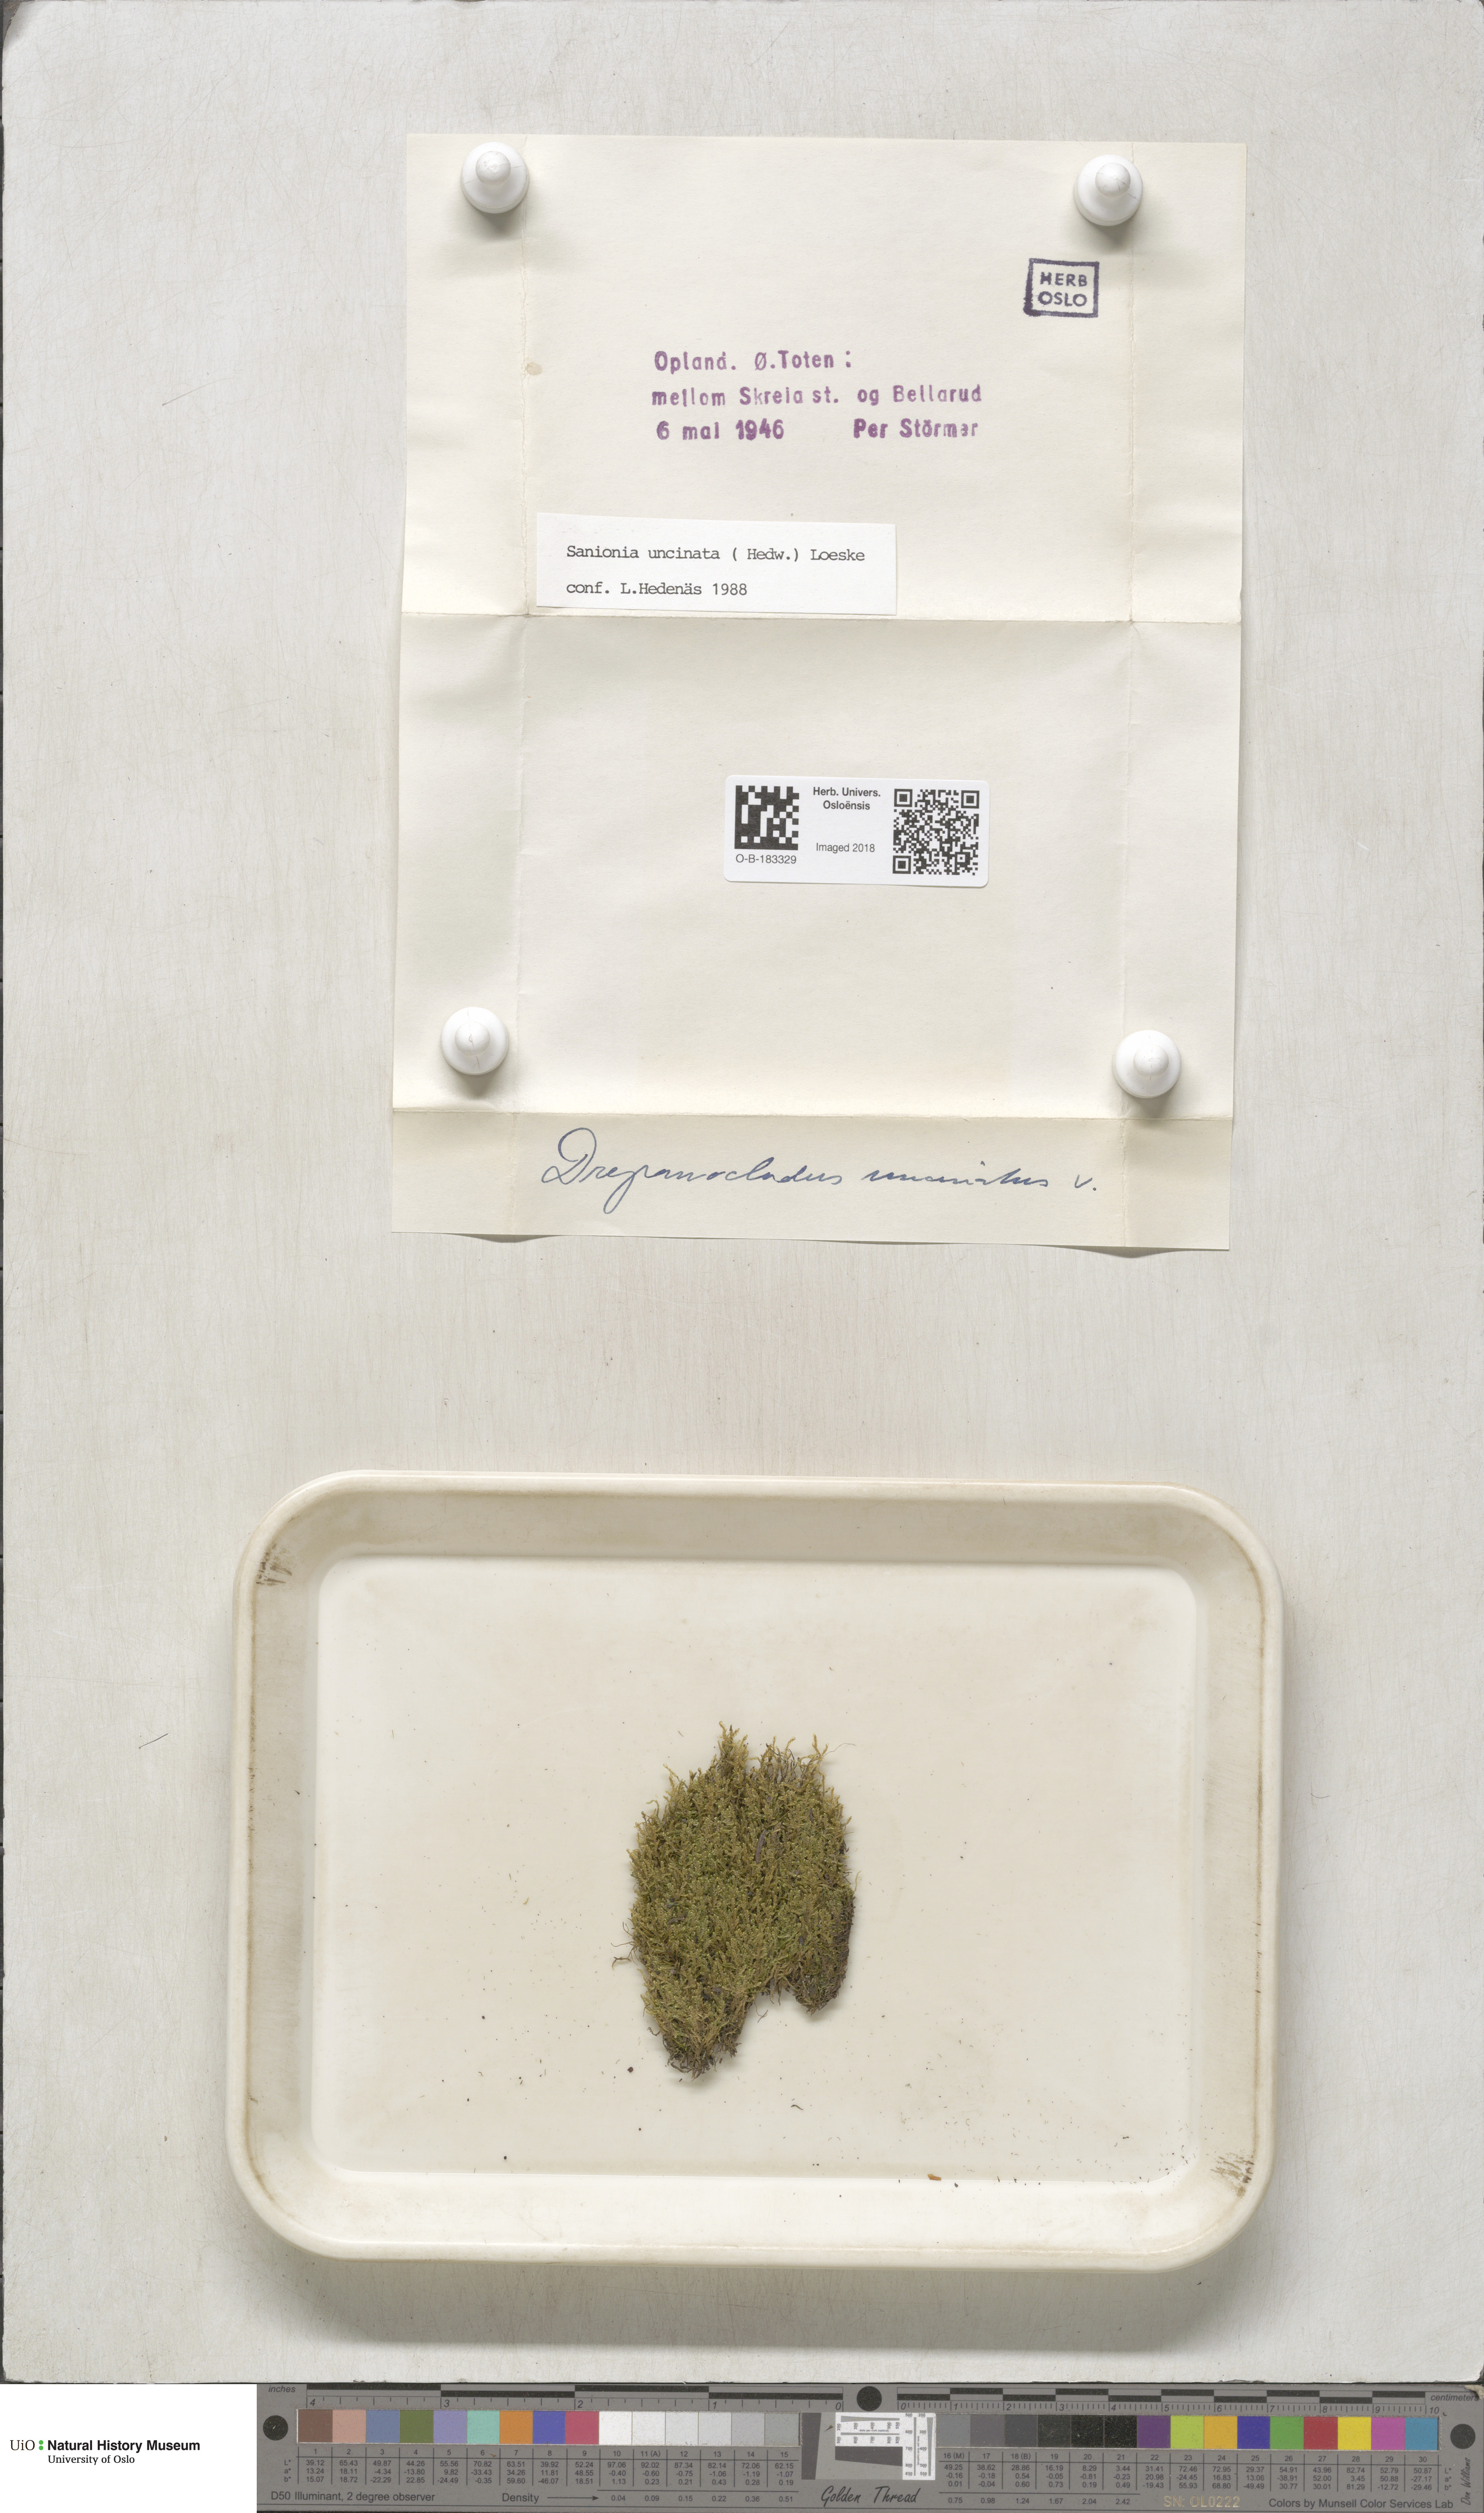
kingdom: Plantae
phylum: Bryophyta
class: Bryopsida
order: Hypnales
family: Scorpidiaceae
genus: Sanionia
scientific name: Sanionia uncinata
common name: Sickle moss
